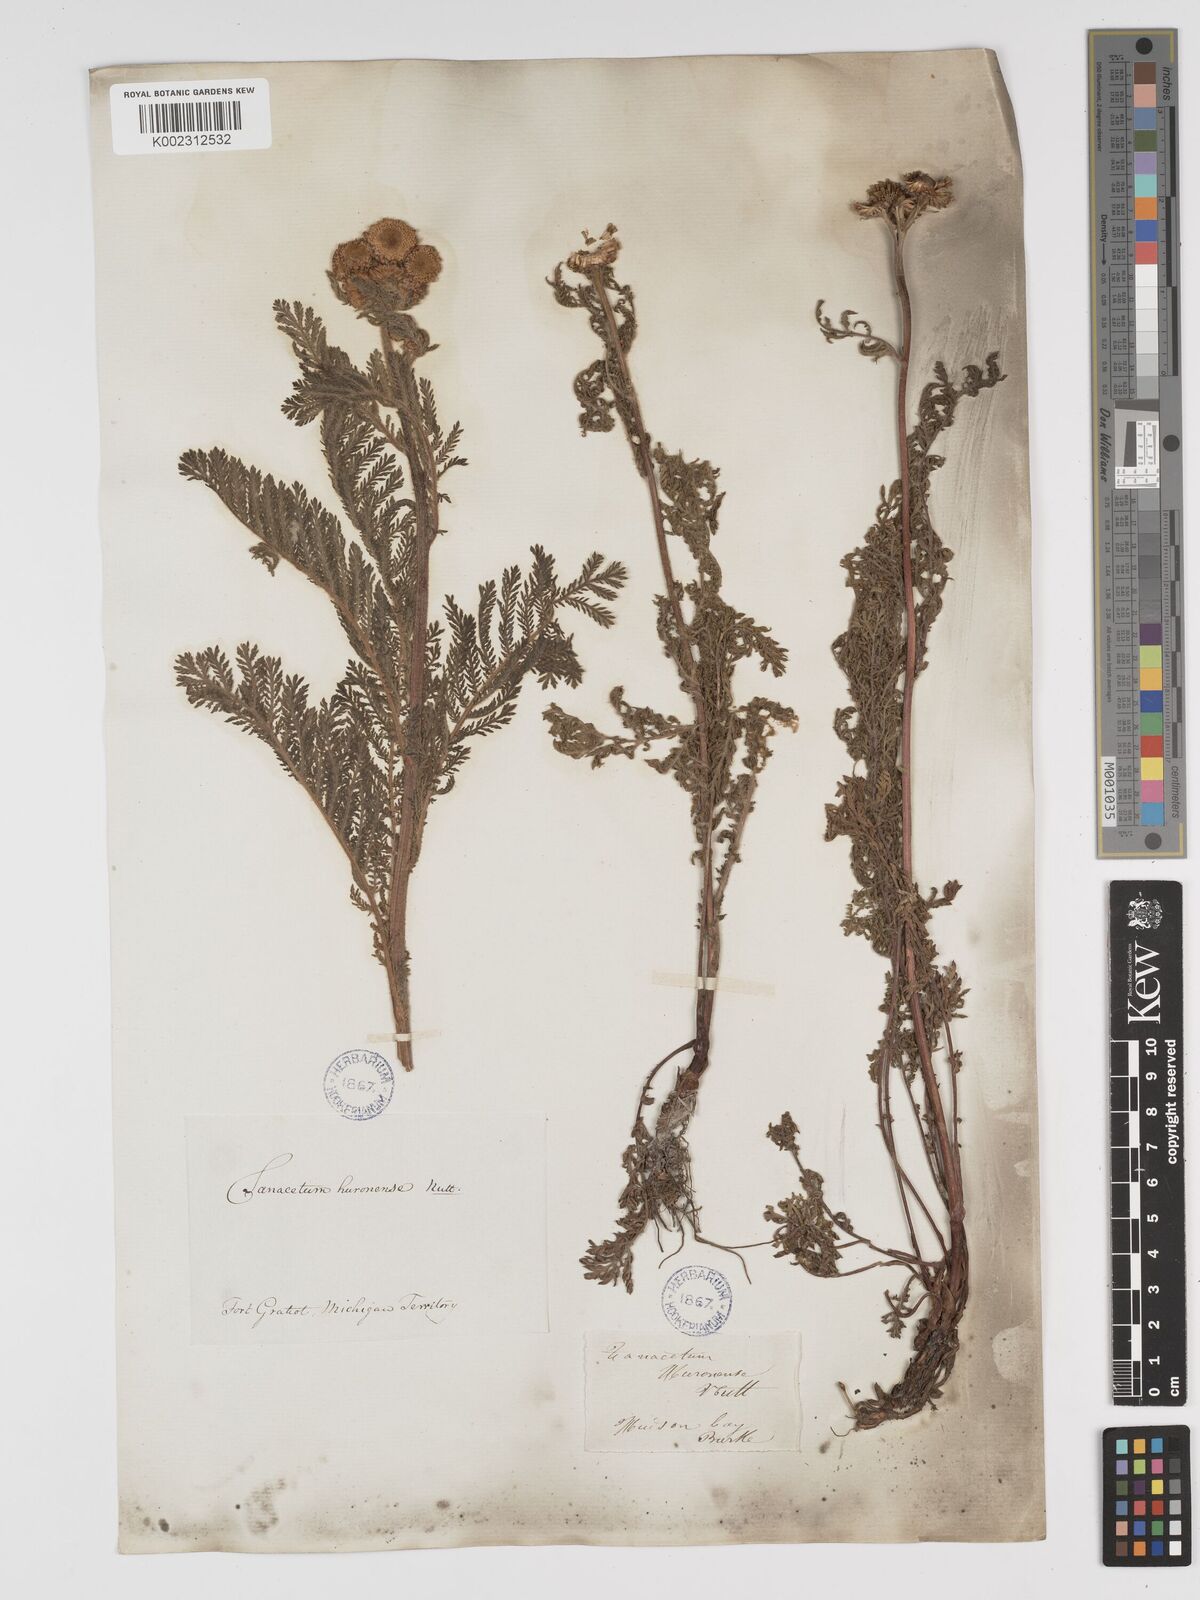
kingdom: Plantae
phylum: Tracheophyta
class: Magnoliopsida
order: Asterales
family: Asteraceae
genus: Tanacetum
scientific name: Tanacetum bipinnatum
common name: Dwarf tansy
